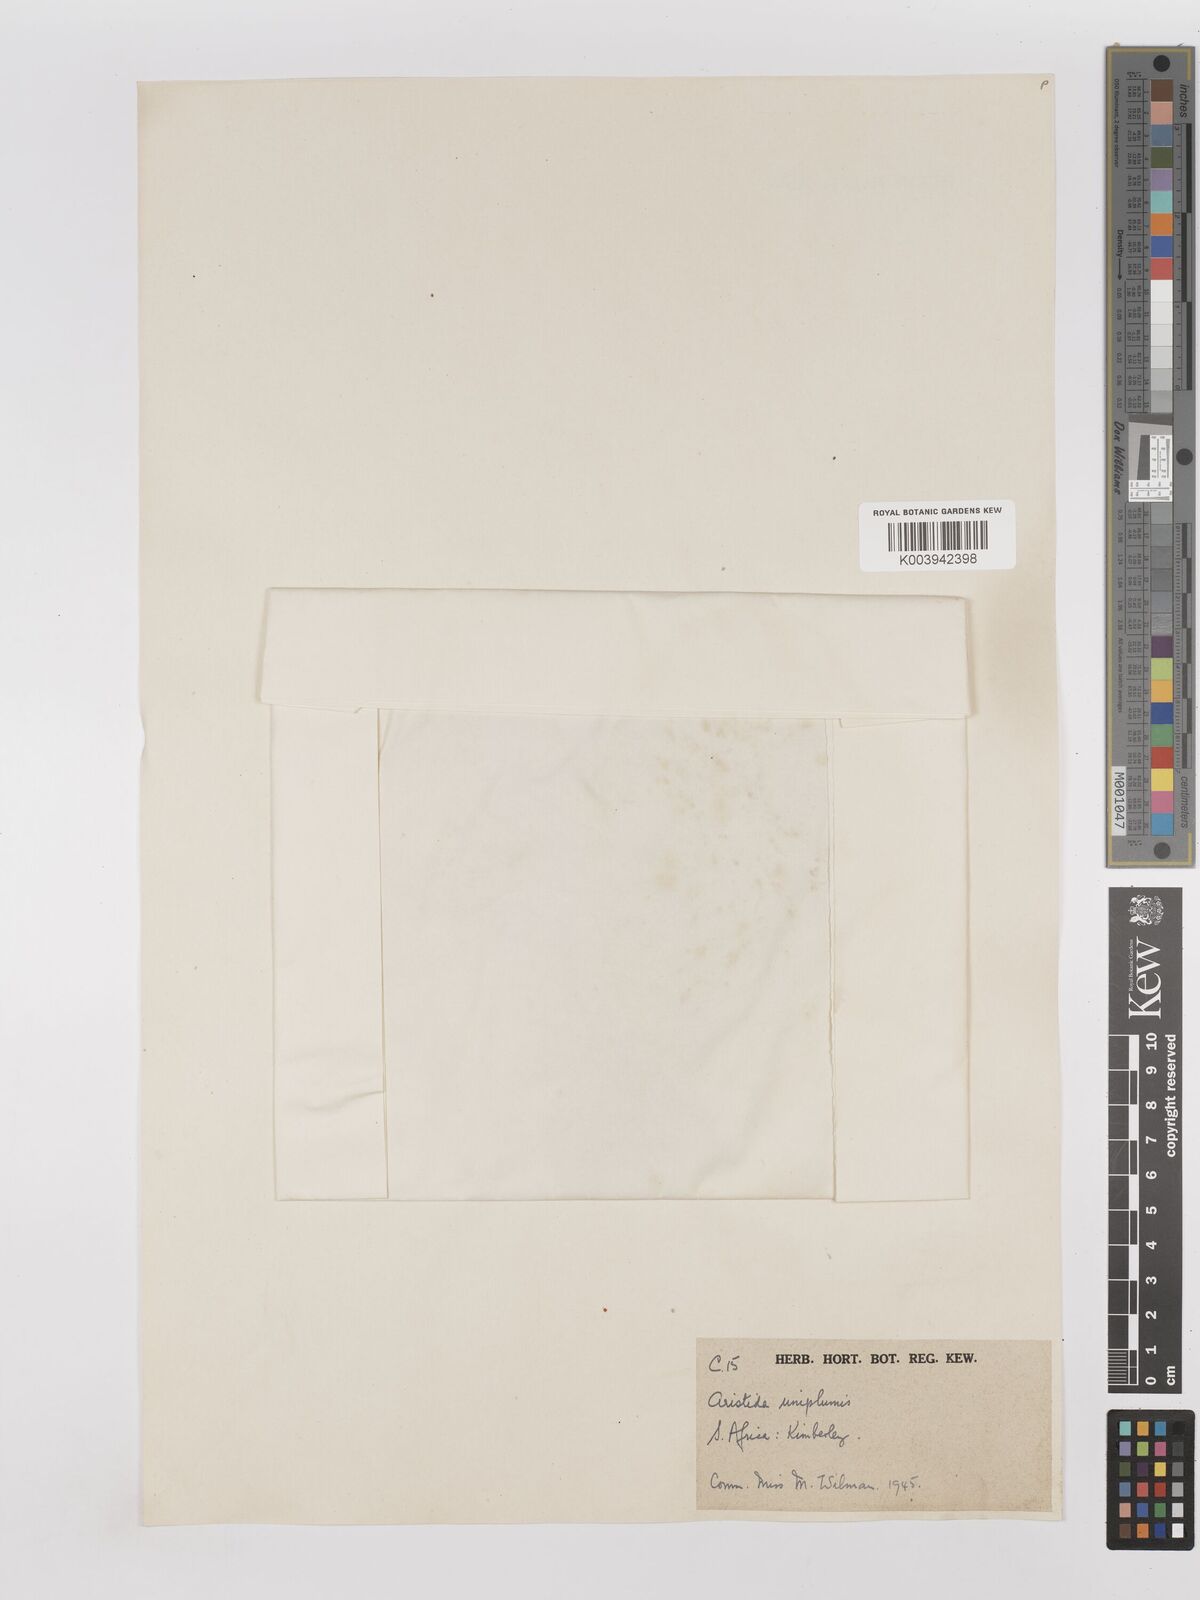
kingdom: Plantae
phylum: Tracheophyta
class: Liliopsida
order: Poales
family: Poaceae
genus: Stipagrostis
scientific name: Stipagrostis uniplumis
